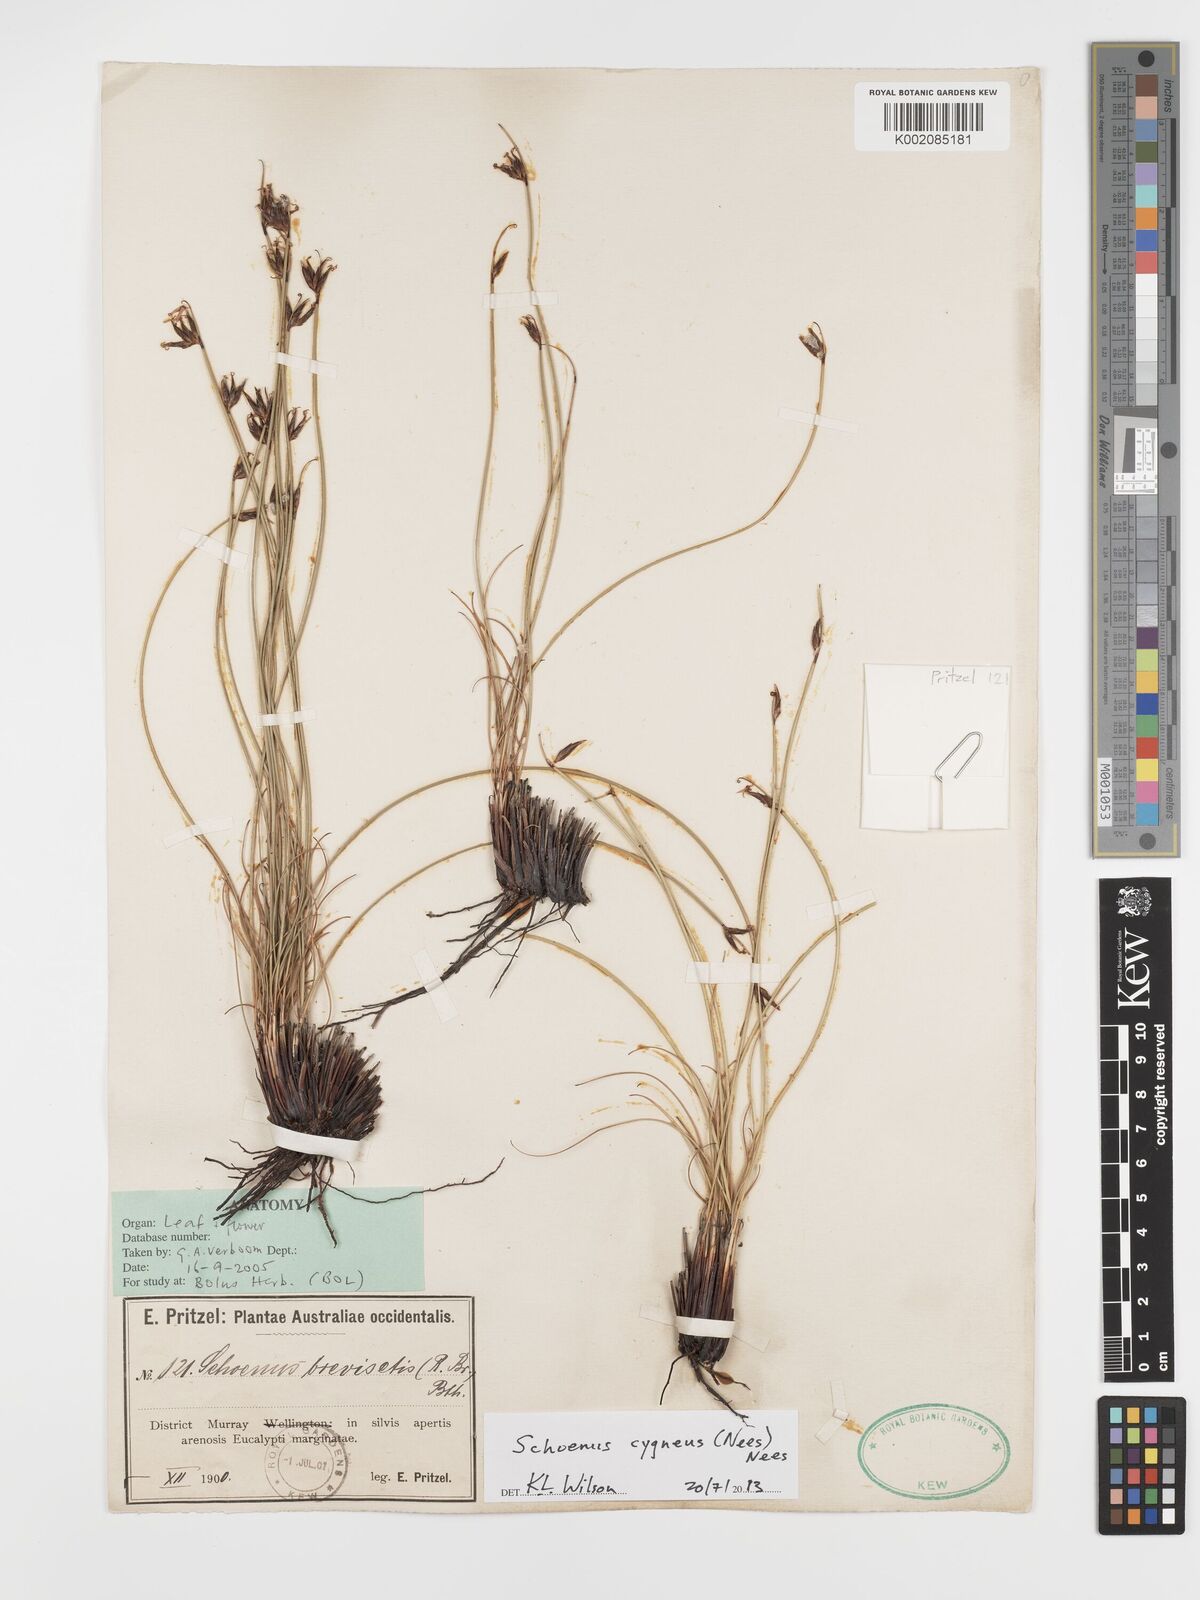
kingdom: Plantae
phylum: Tracheophyta
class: Liliopsida
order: Poales
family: Cyperaceae
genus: Schoenus
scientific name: Schoenus cygneus
